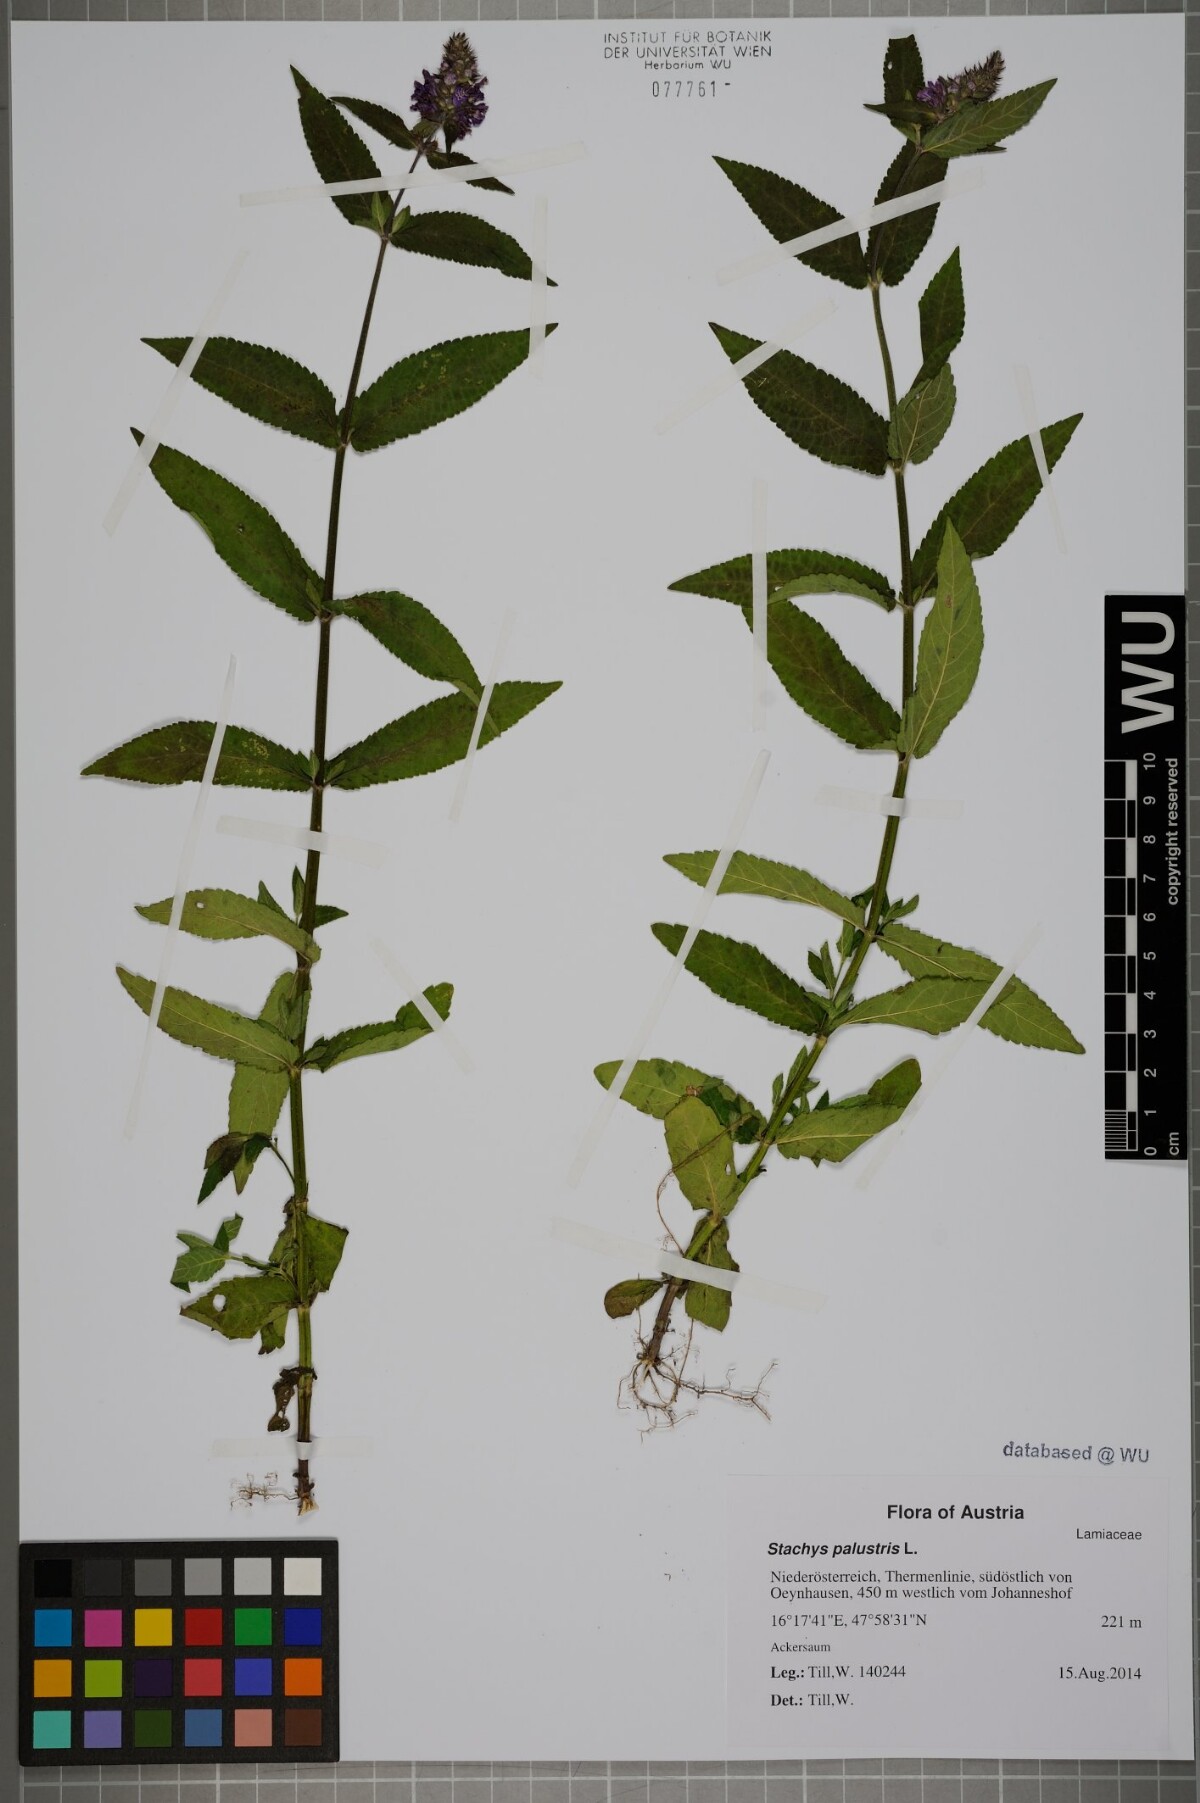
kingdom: Plantae
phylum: Tracheophyta
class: Magnoliopsida
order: Lamiales
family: Lamiaceae
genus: Stachys
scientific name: Stachys palustris
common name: Marsh woundwort
